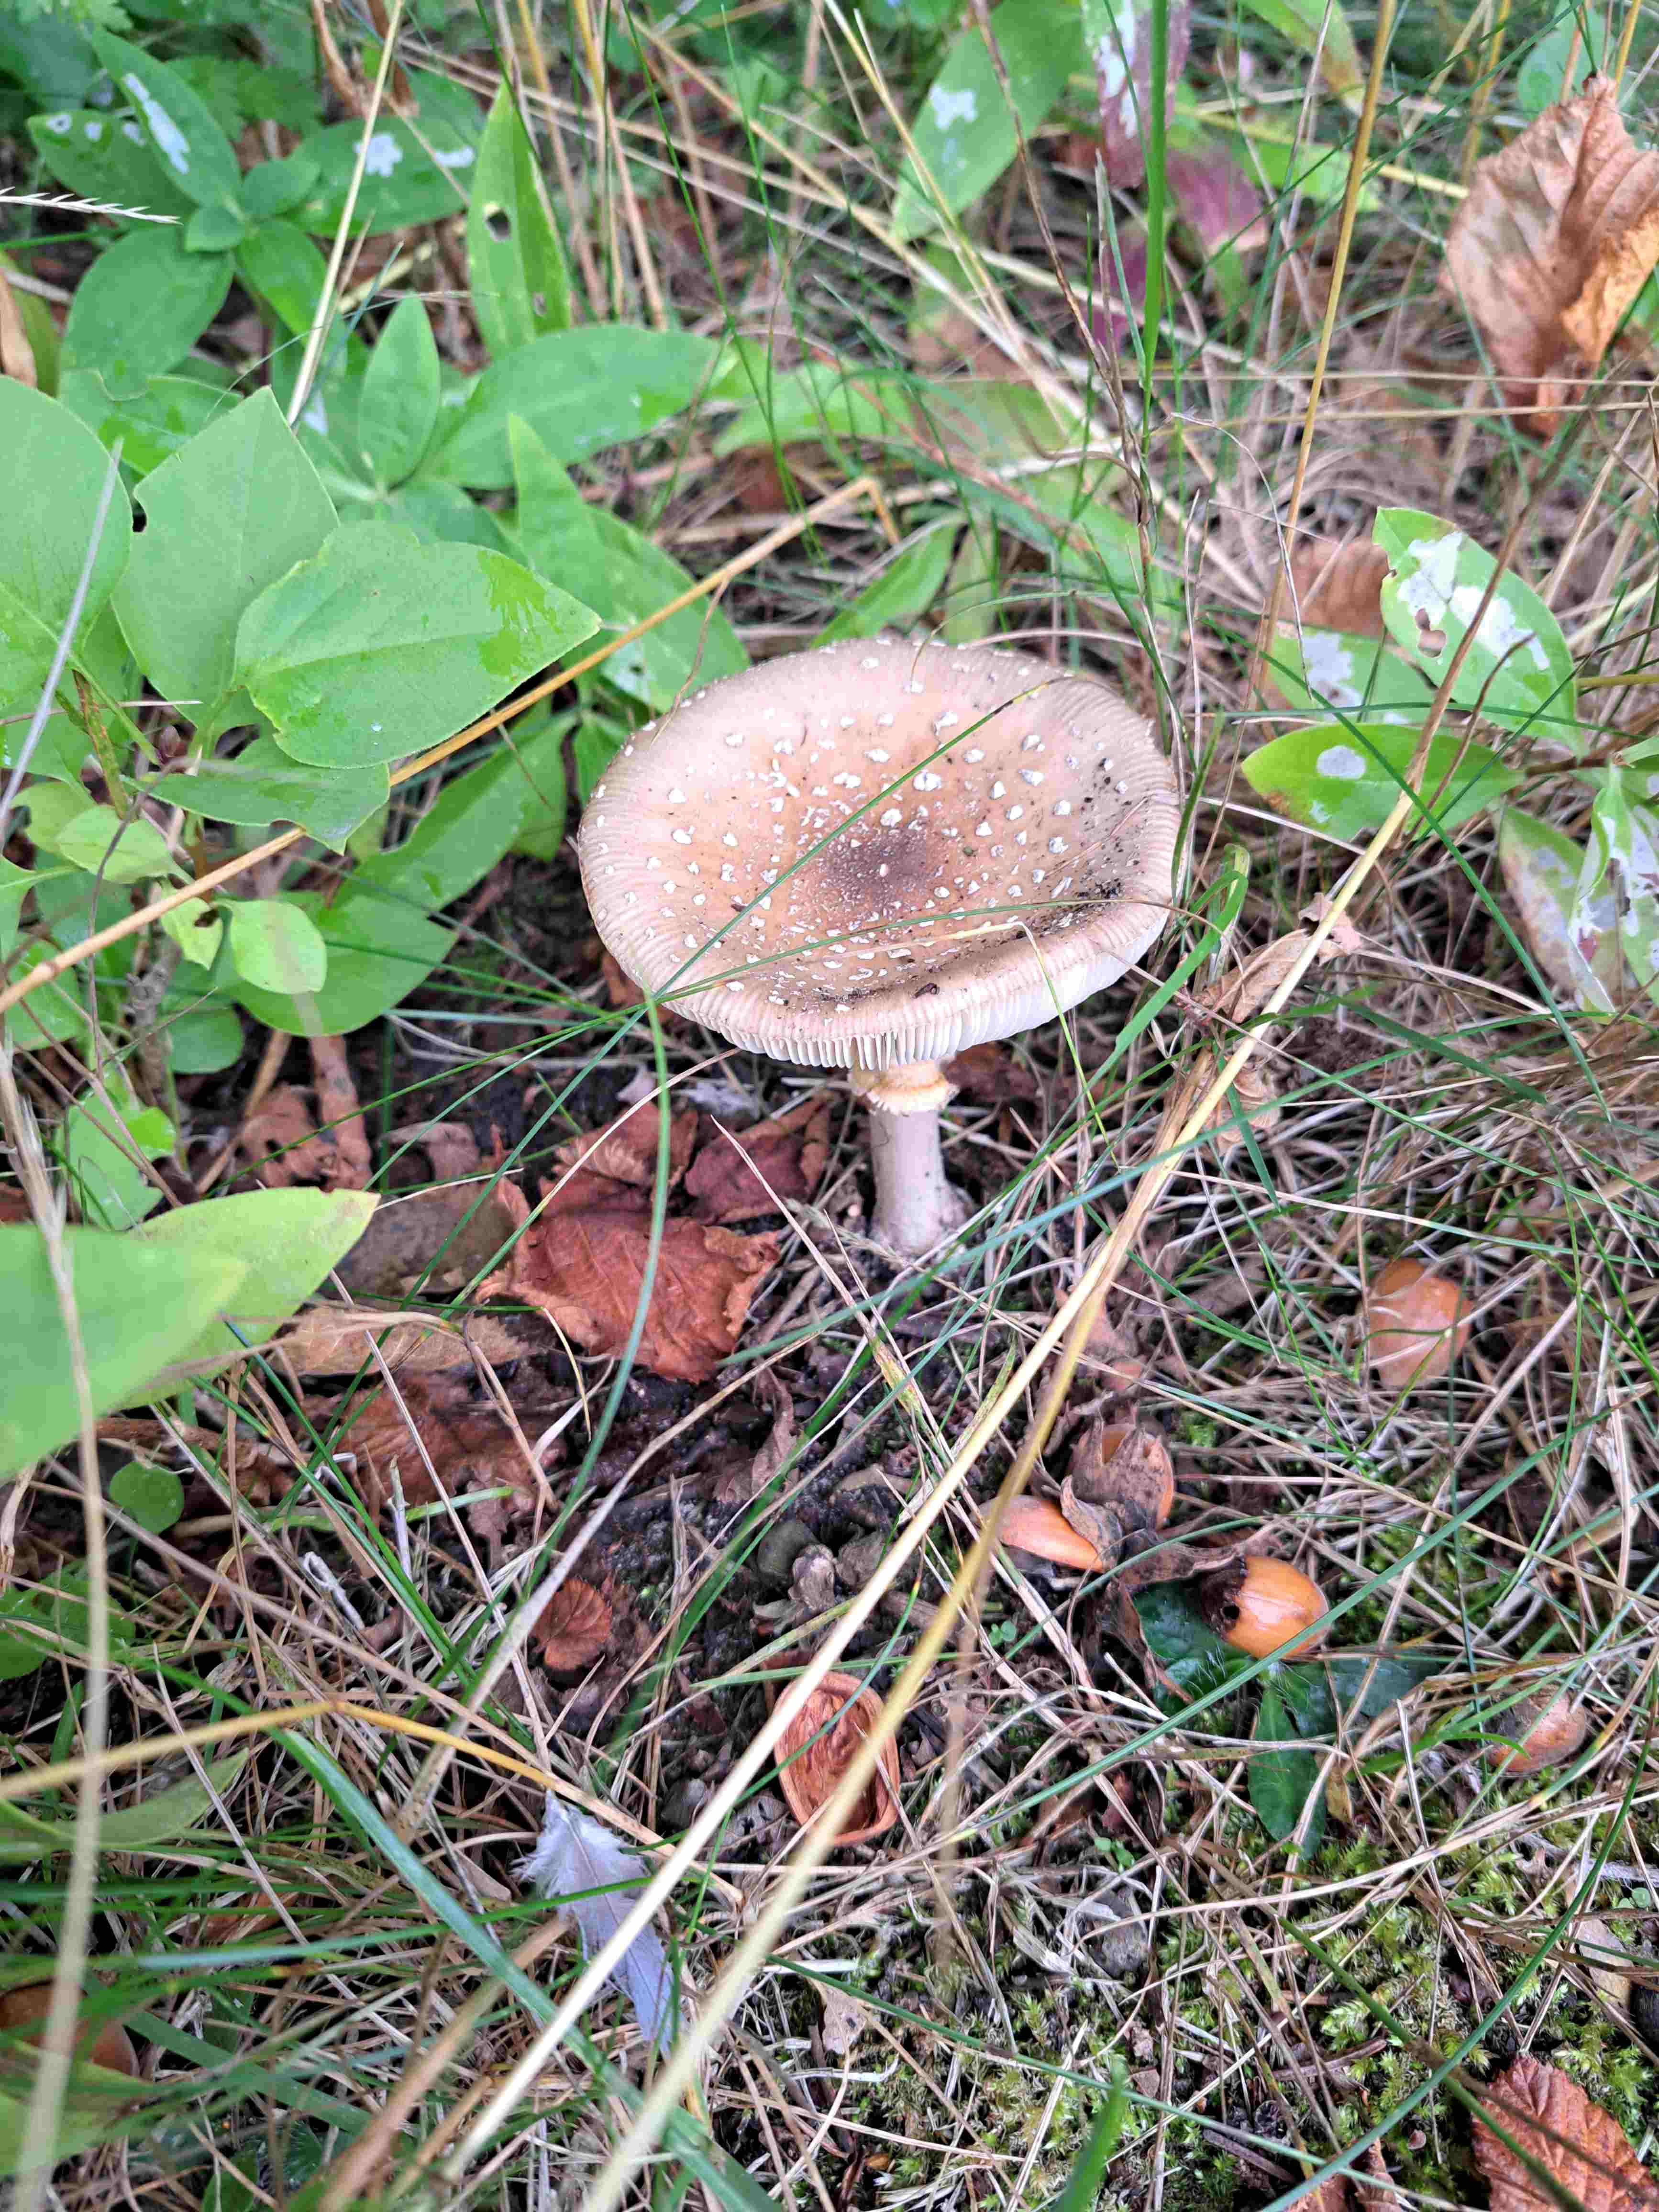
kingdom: Fungi
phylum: Basidiomycota
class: Agaricomycetes
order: Agaricales
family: Amanitaceae
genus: Amanita
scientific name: Amanita pantherina
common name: panter-fluesvamp
